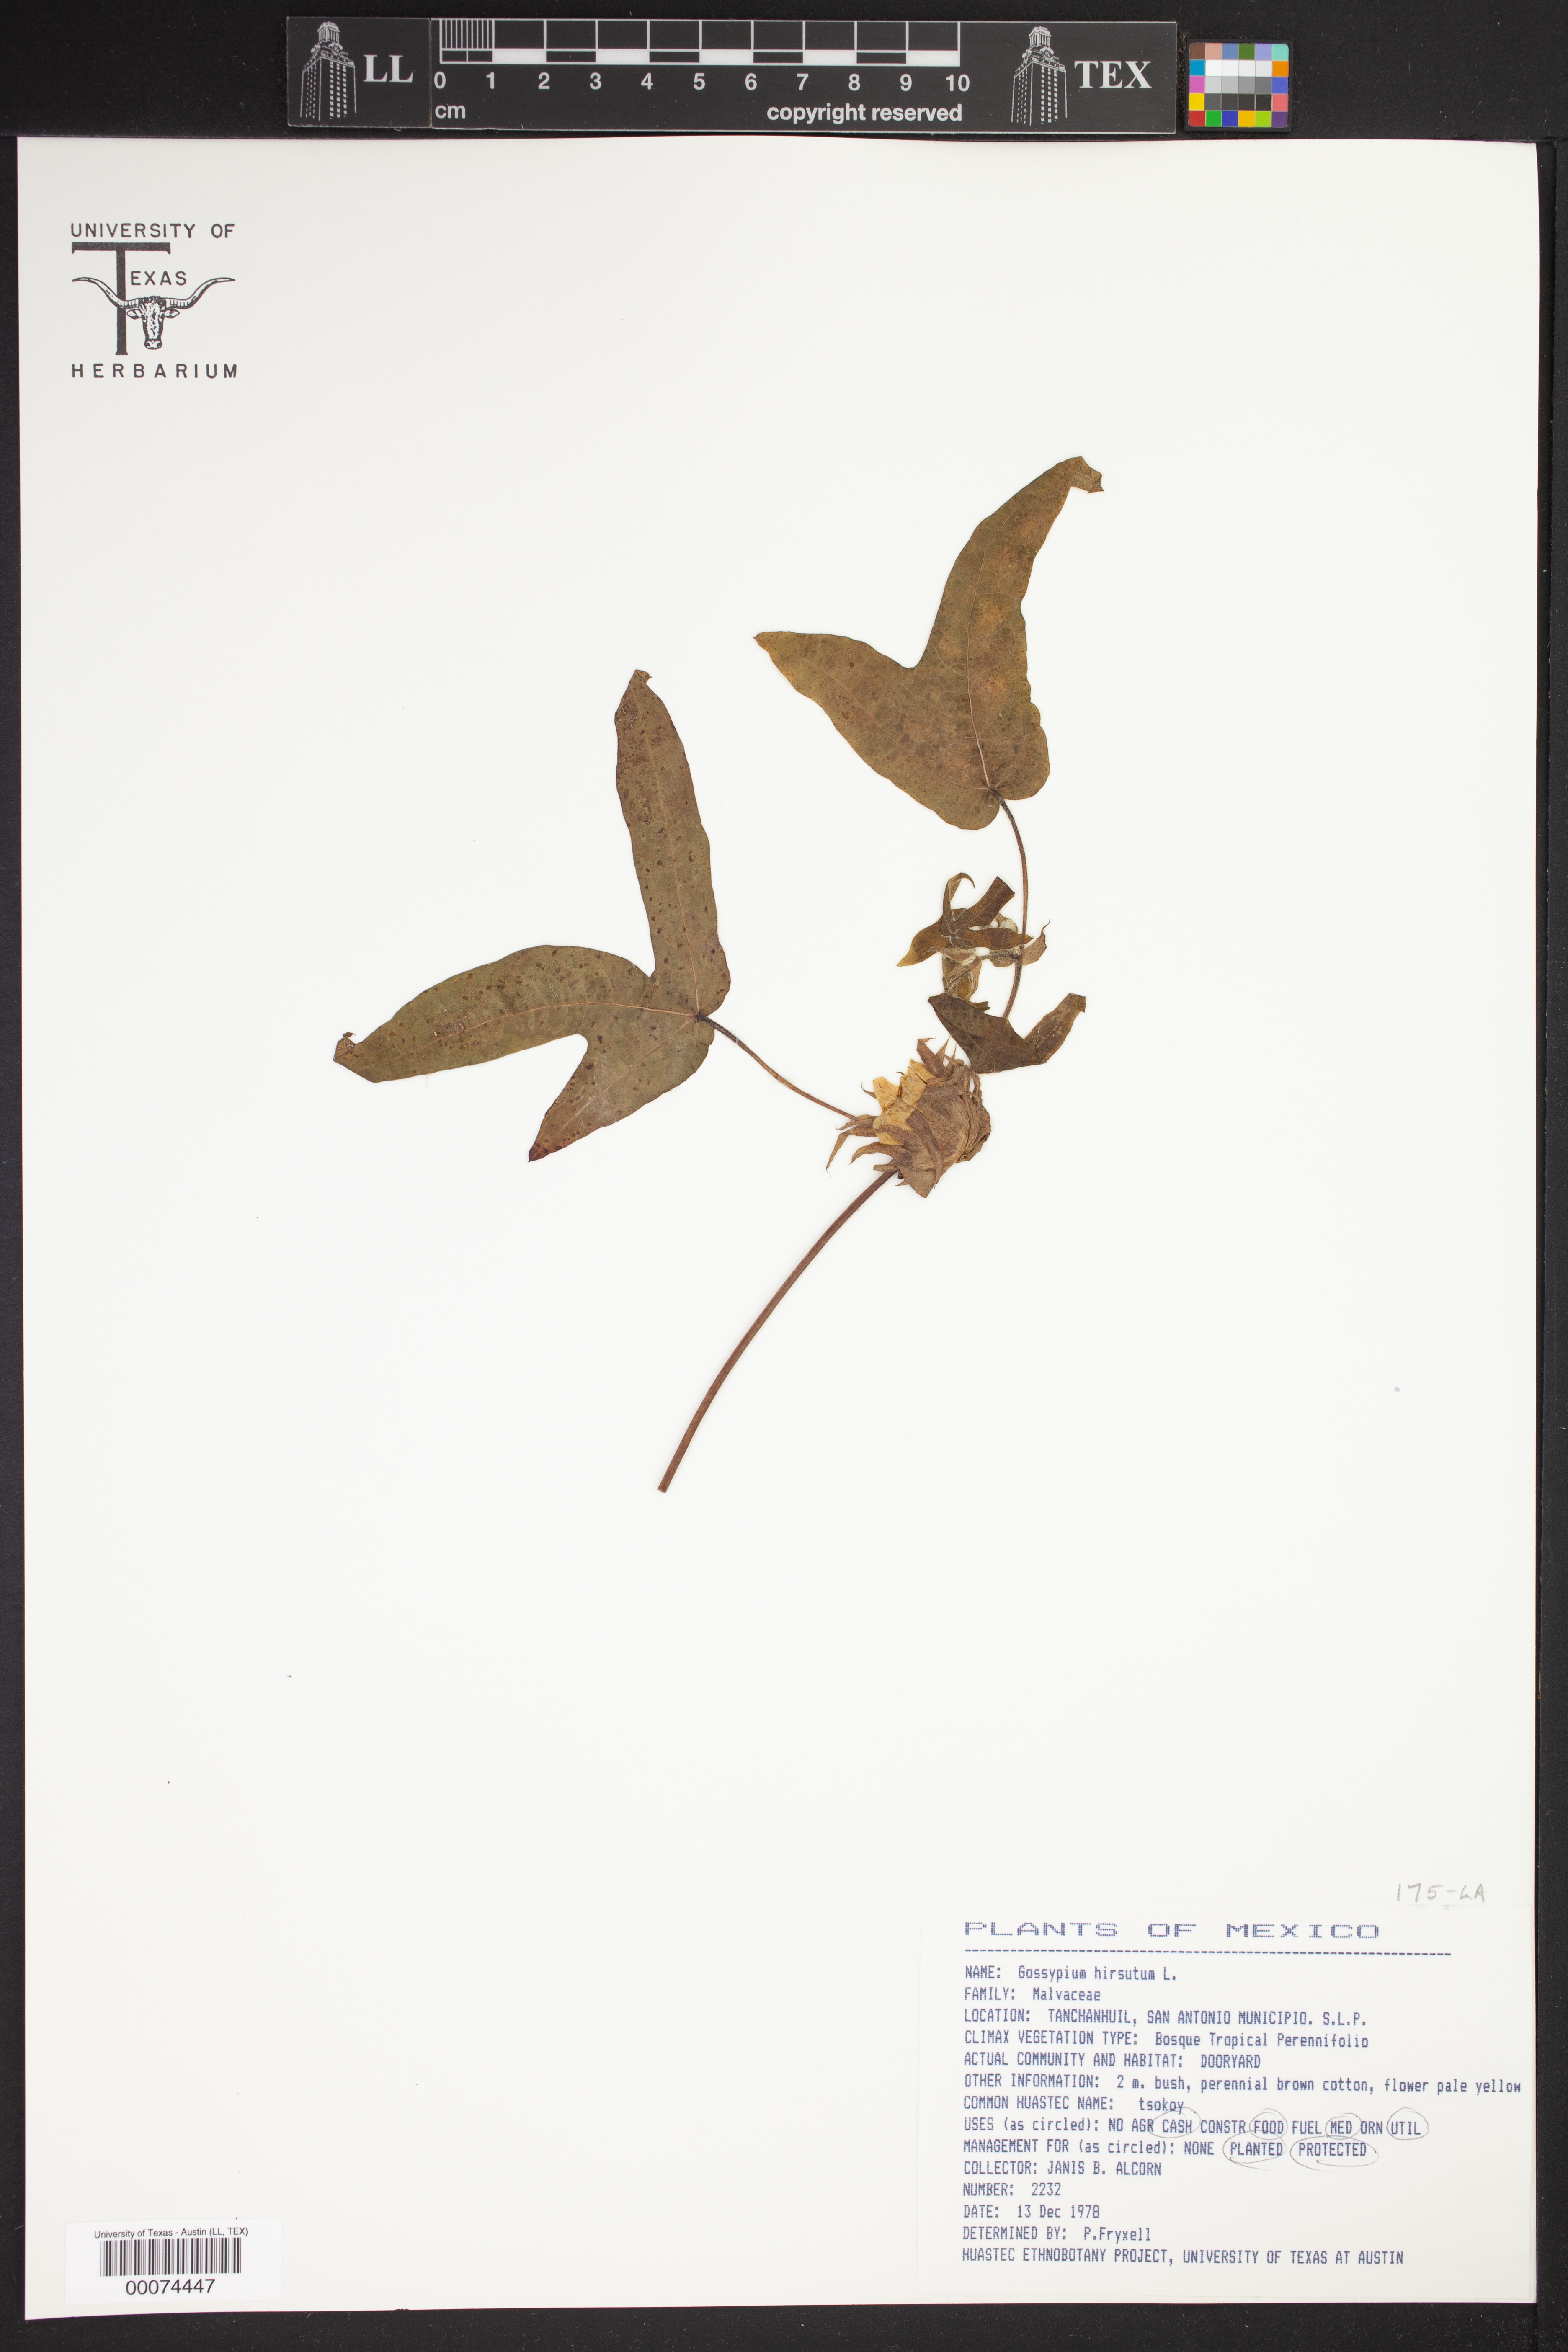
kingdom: Plantae
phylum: Tracheophyta
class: Magnoliopsida
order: Malvales
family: Malvaceae
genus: Gossypium
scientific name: Gossypium hirsutum
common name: Cotton
